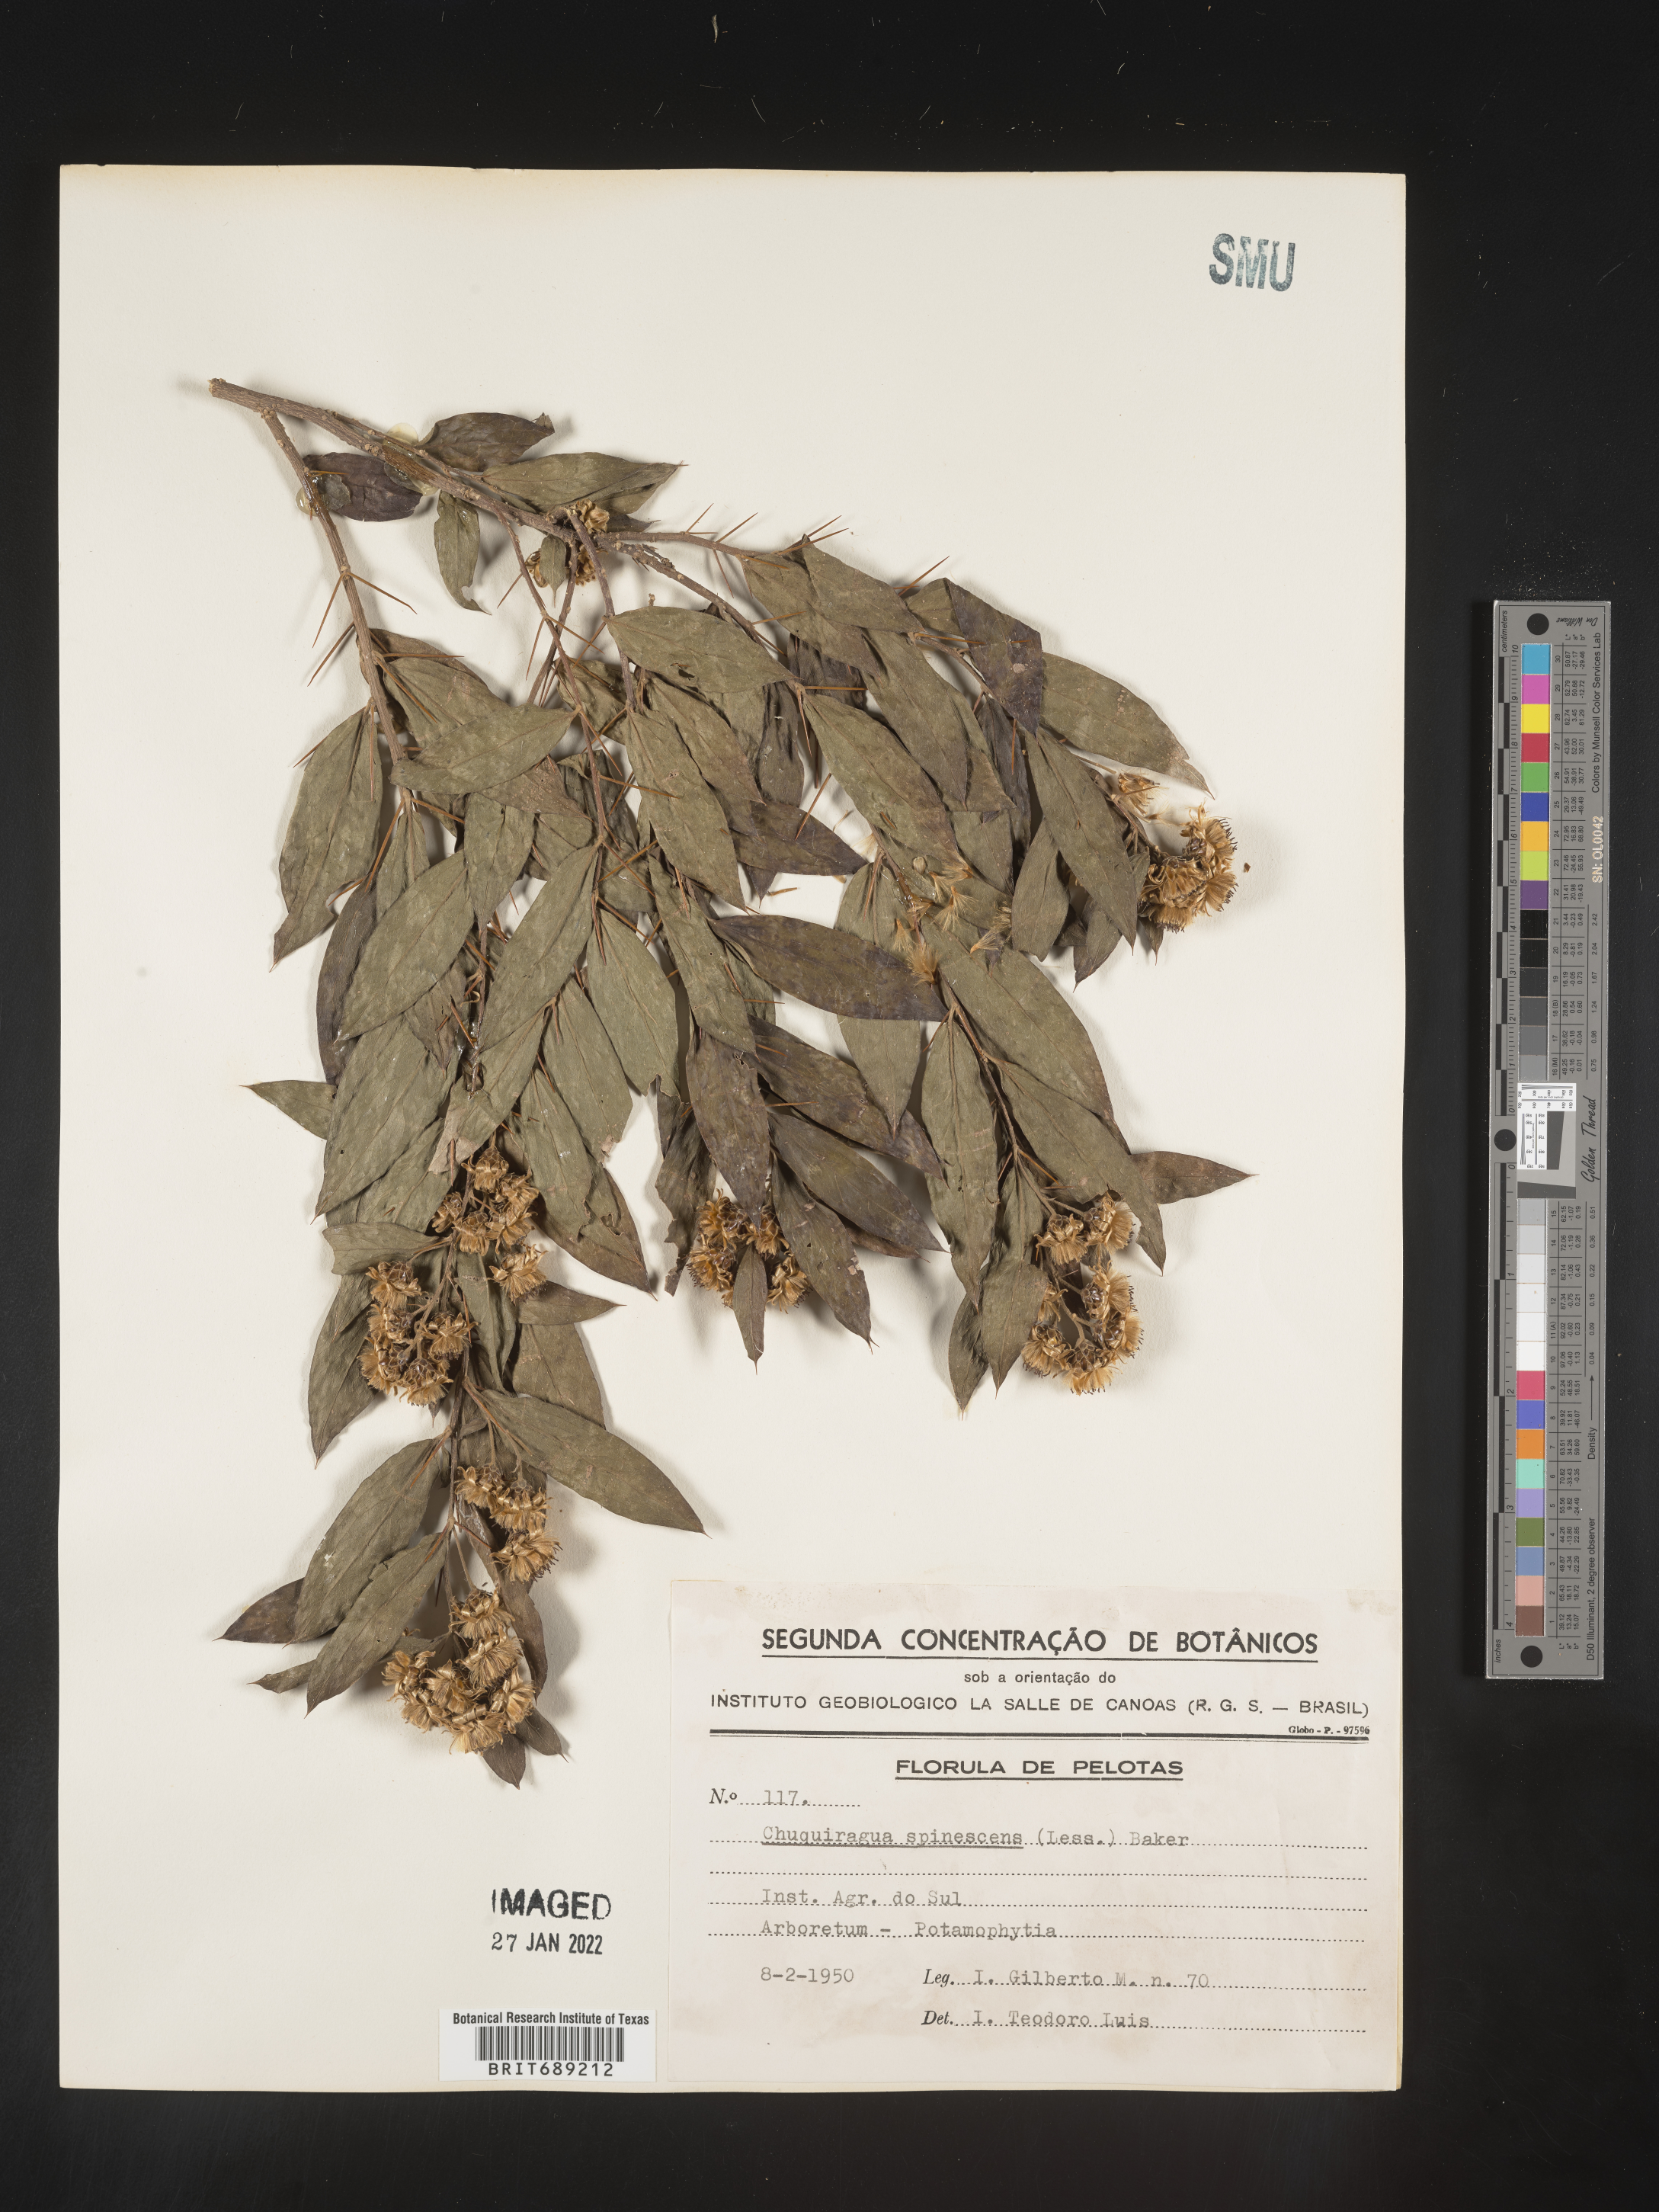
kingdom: Plantae
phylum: Tracheophyta
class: Magnoliopsida
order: Asterales
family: Asteraceae
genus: Chuquiraga
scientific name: Chuquiraga
